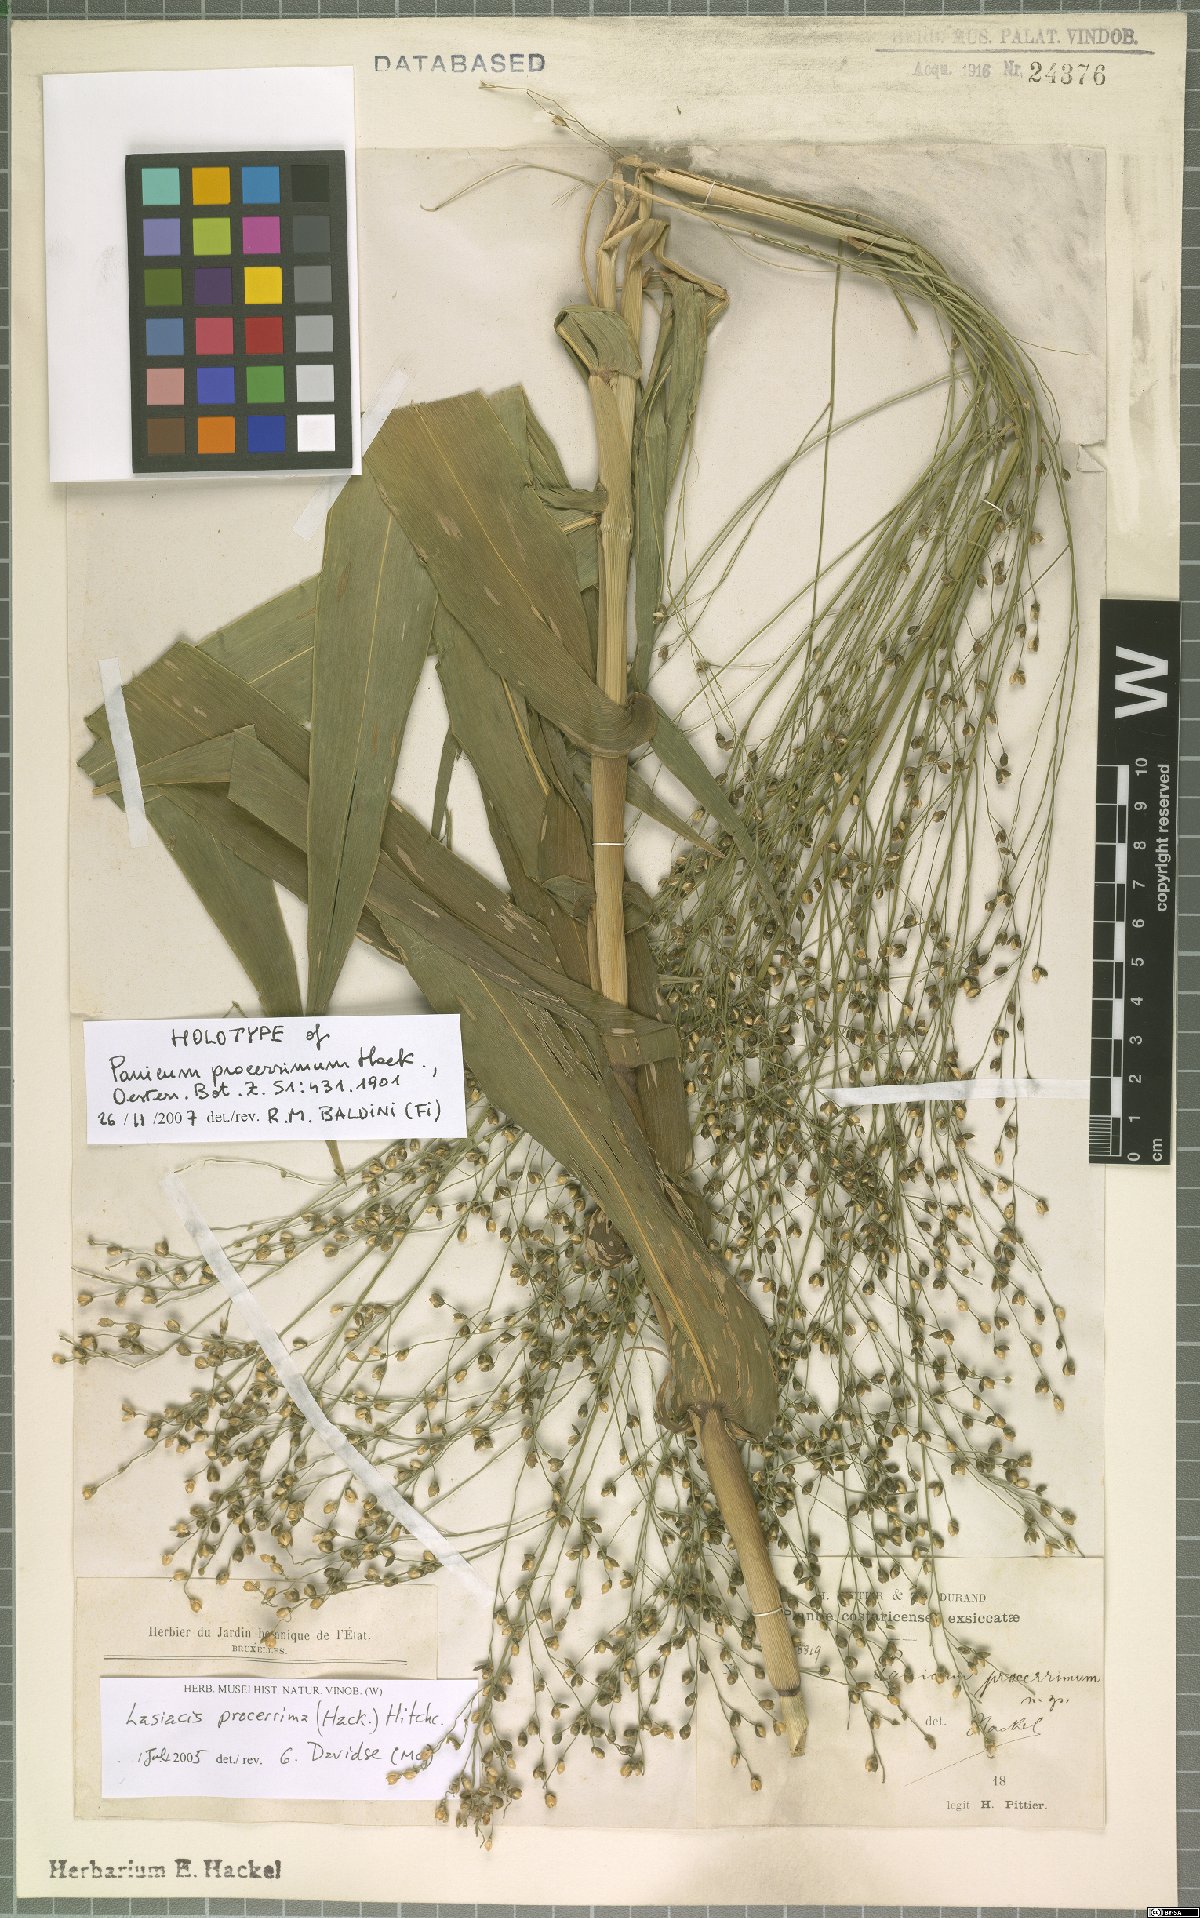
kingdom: Plantae
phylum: Tracheophyta
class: Liliopsida
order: Poales
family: Poaceae
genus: Lasiacis
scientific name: Lasiacis procerrima
